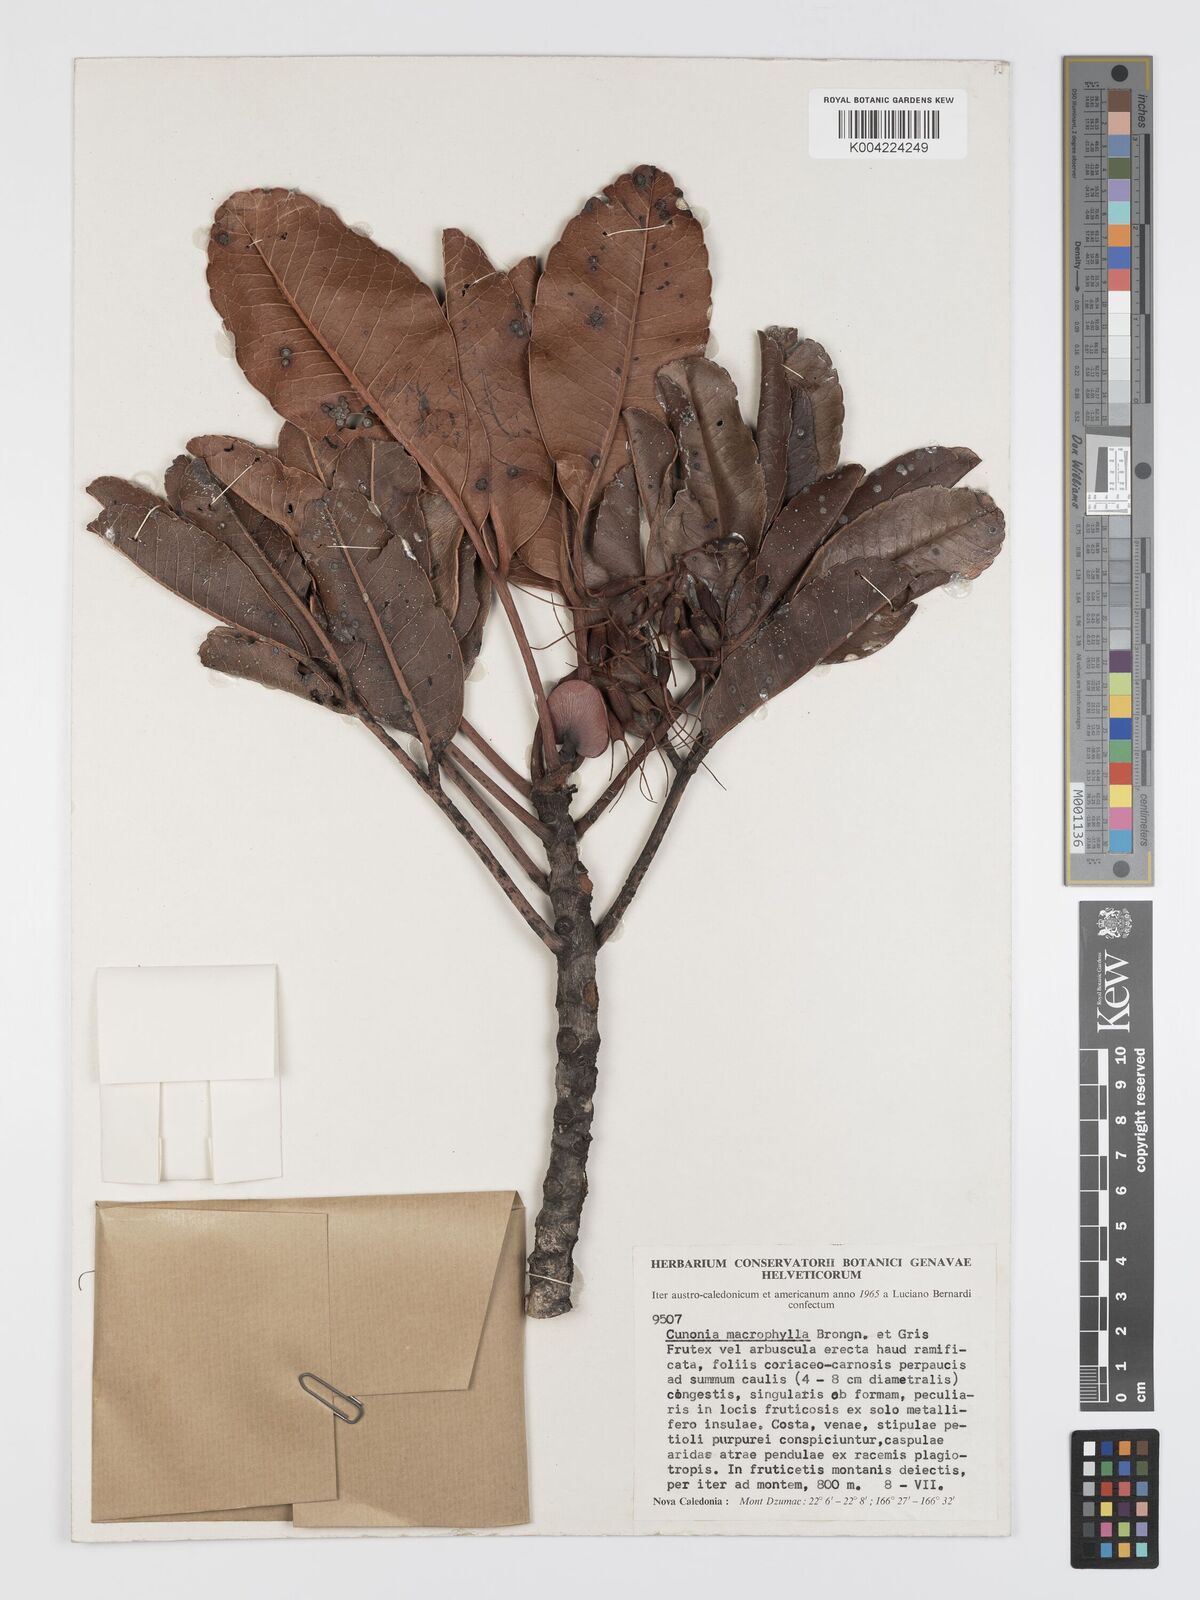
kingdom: Plantae
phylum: Tracheophyta
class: Magnoliopsida
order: Oxalidales
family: Cunoniaceae
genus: Cunonia
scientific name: Cunonia macrophylla
